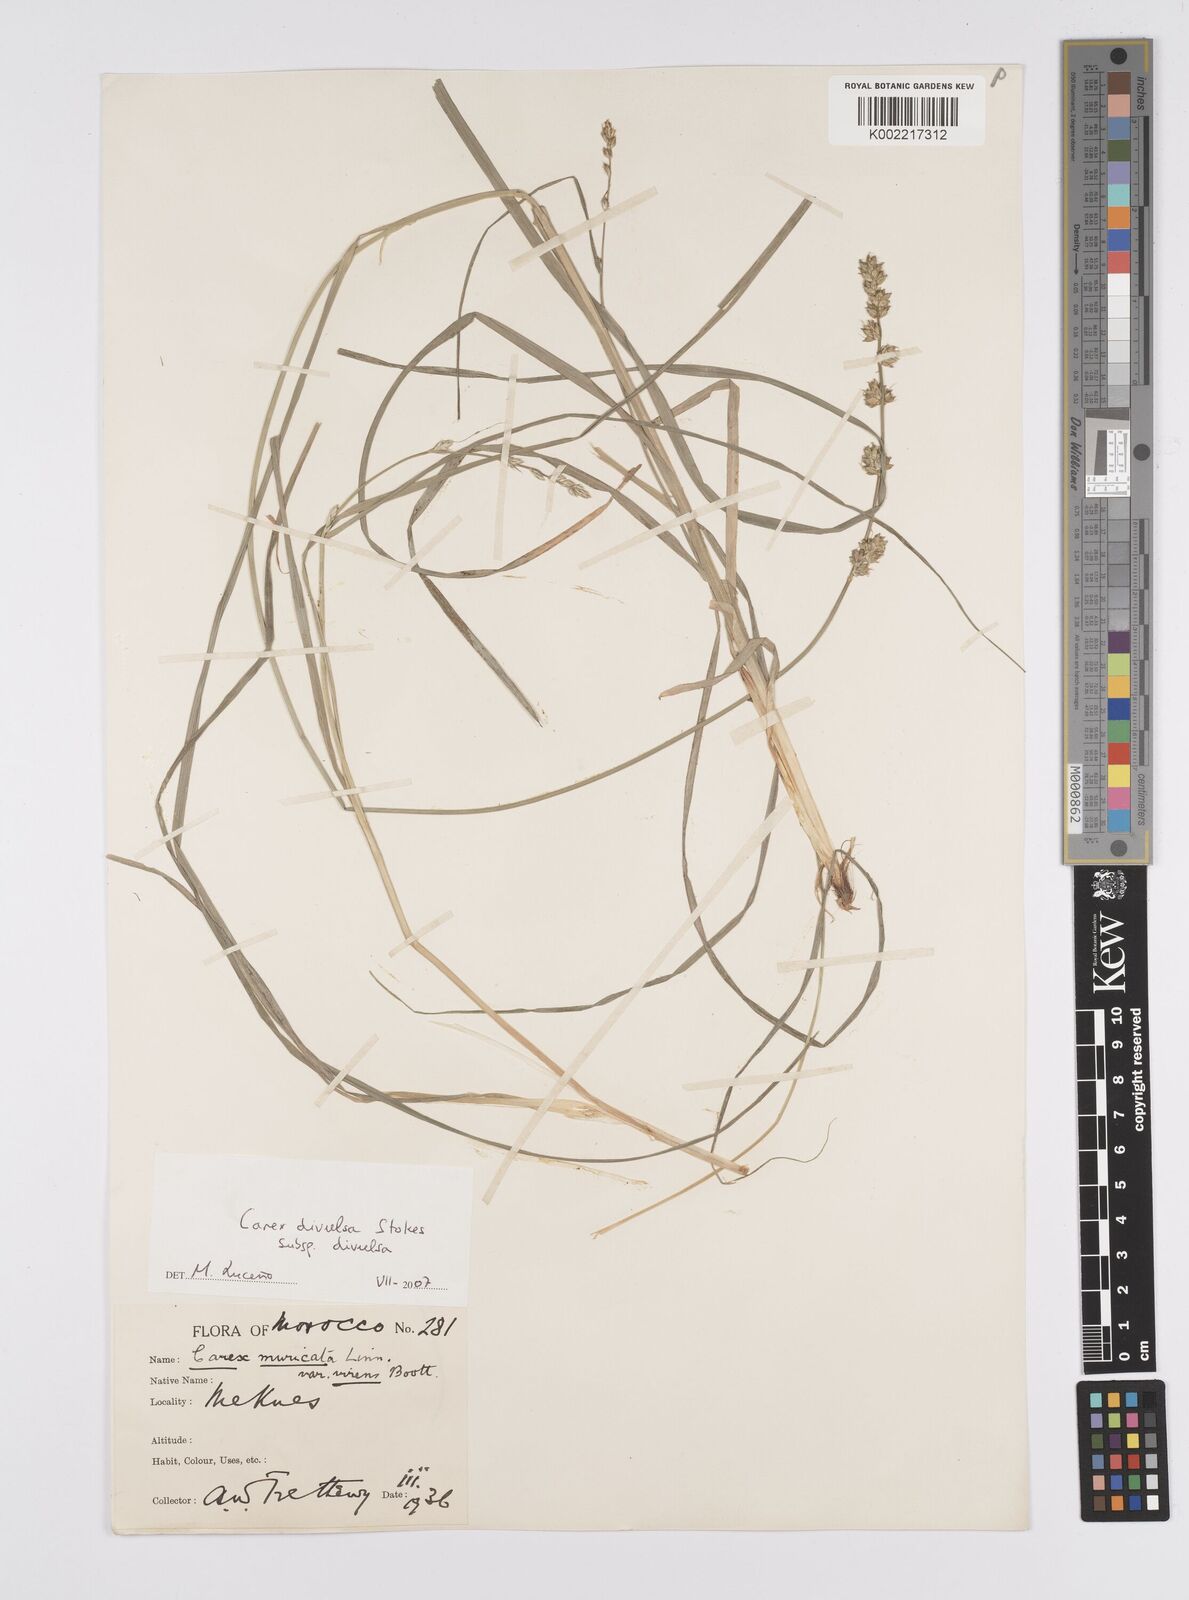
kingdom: Plantae
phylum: Tracheophyta
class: Liliopsida
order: Poales
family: Cyperaceae
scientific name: Cyperaceae
